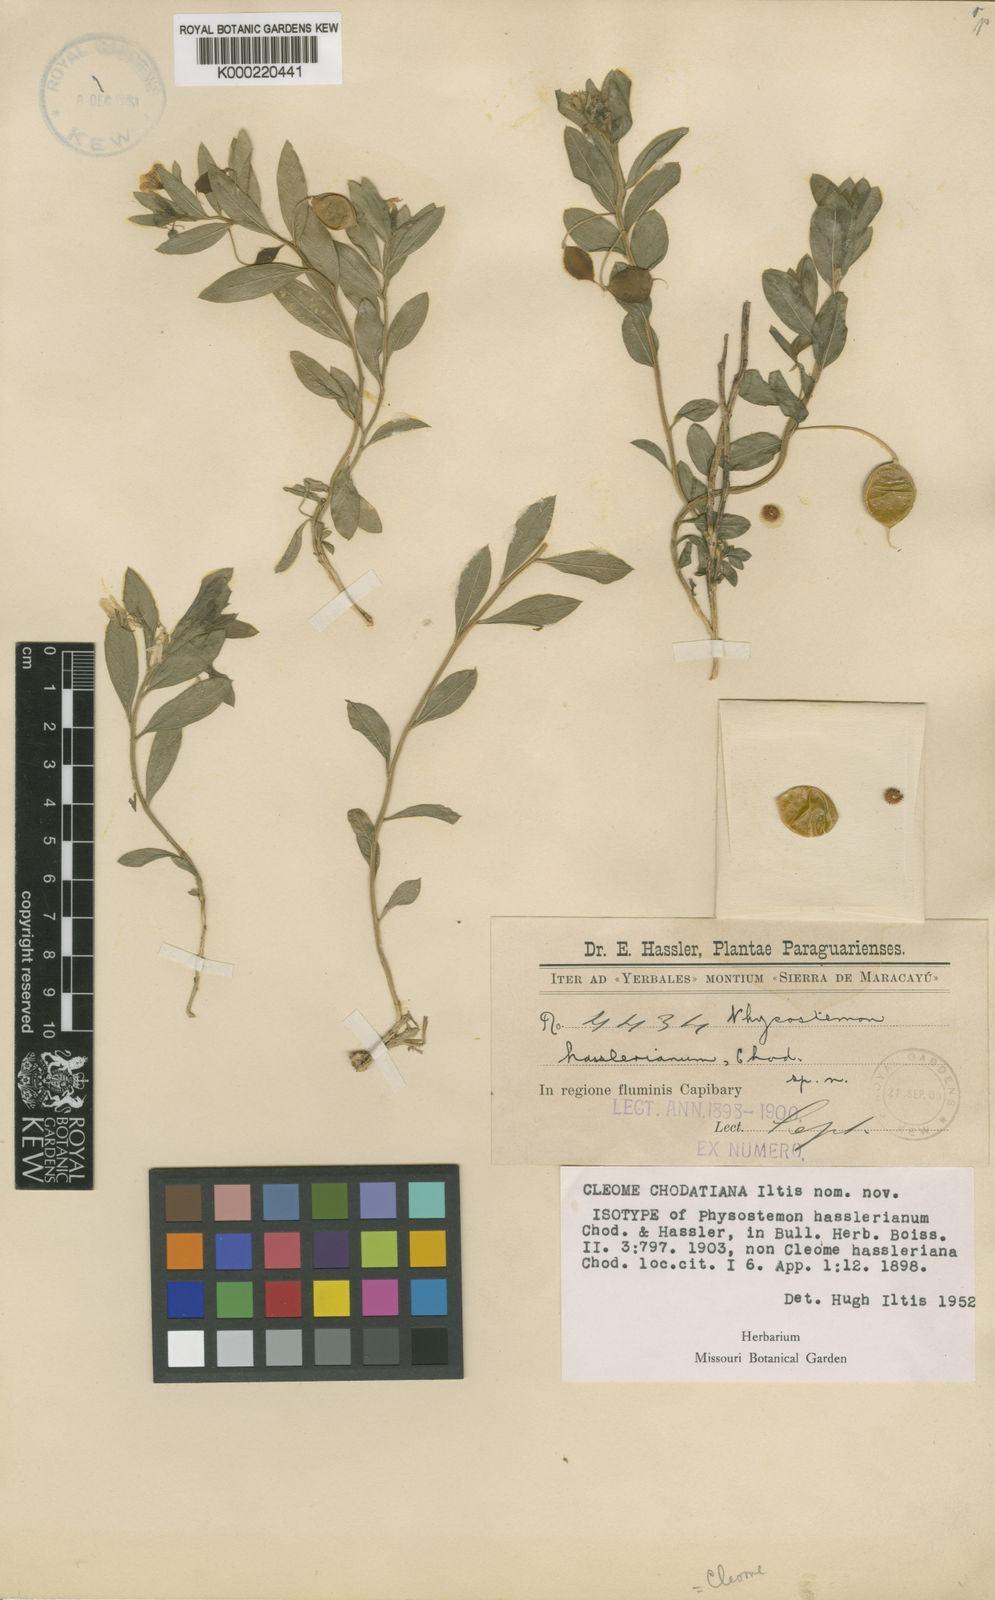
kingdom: Plantae
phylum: Tracheophyta
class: Magnoliopsida
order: Brassicales
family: Cleomaceae
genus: Physostemon
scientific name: Physostemon hasslerianus
